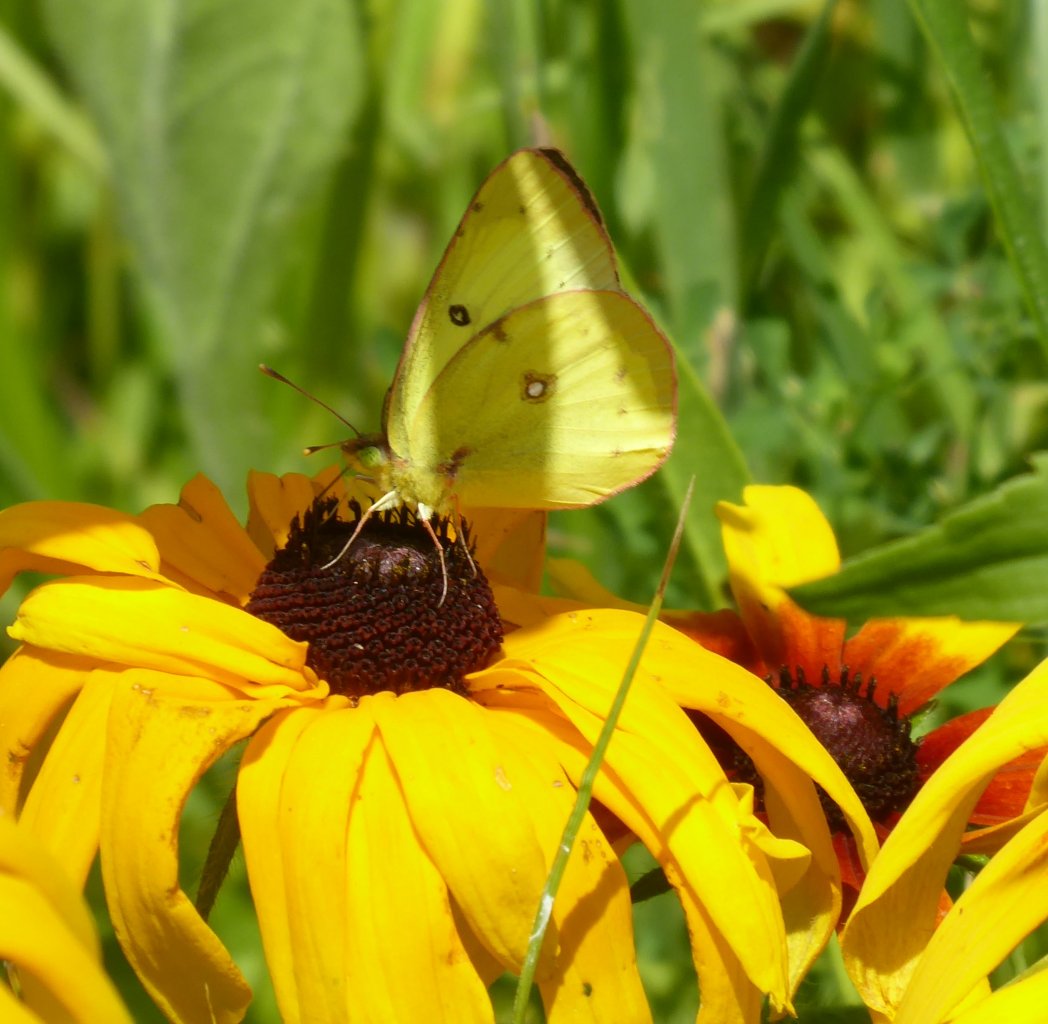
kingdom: Animalia
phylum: Arthropoda
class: Insecta
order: Lepidoptera
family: Pieridae
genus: Colias
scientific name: Colias philodice
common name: Clouded Sulphur
